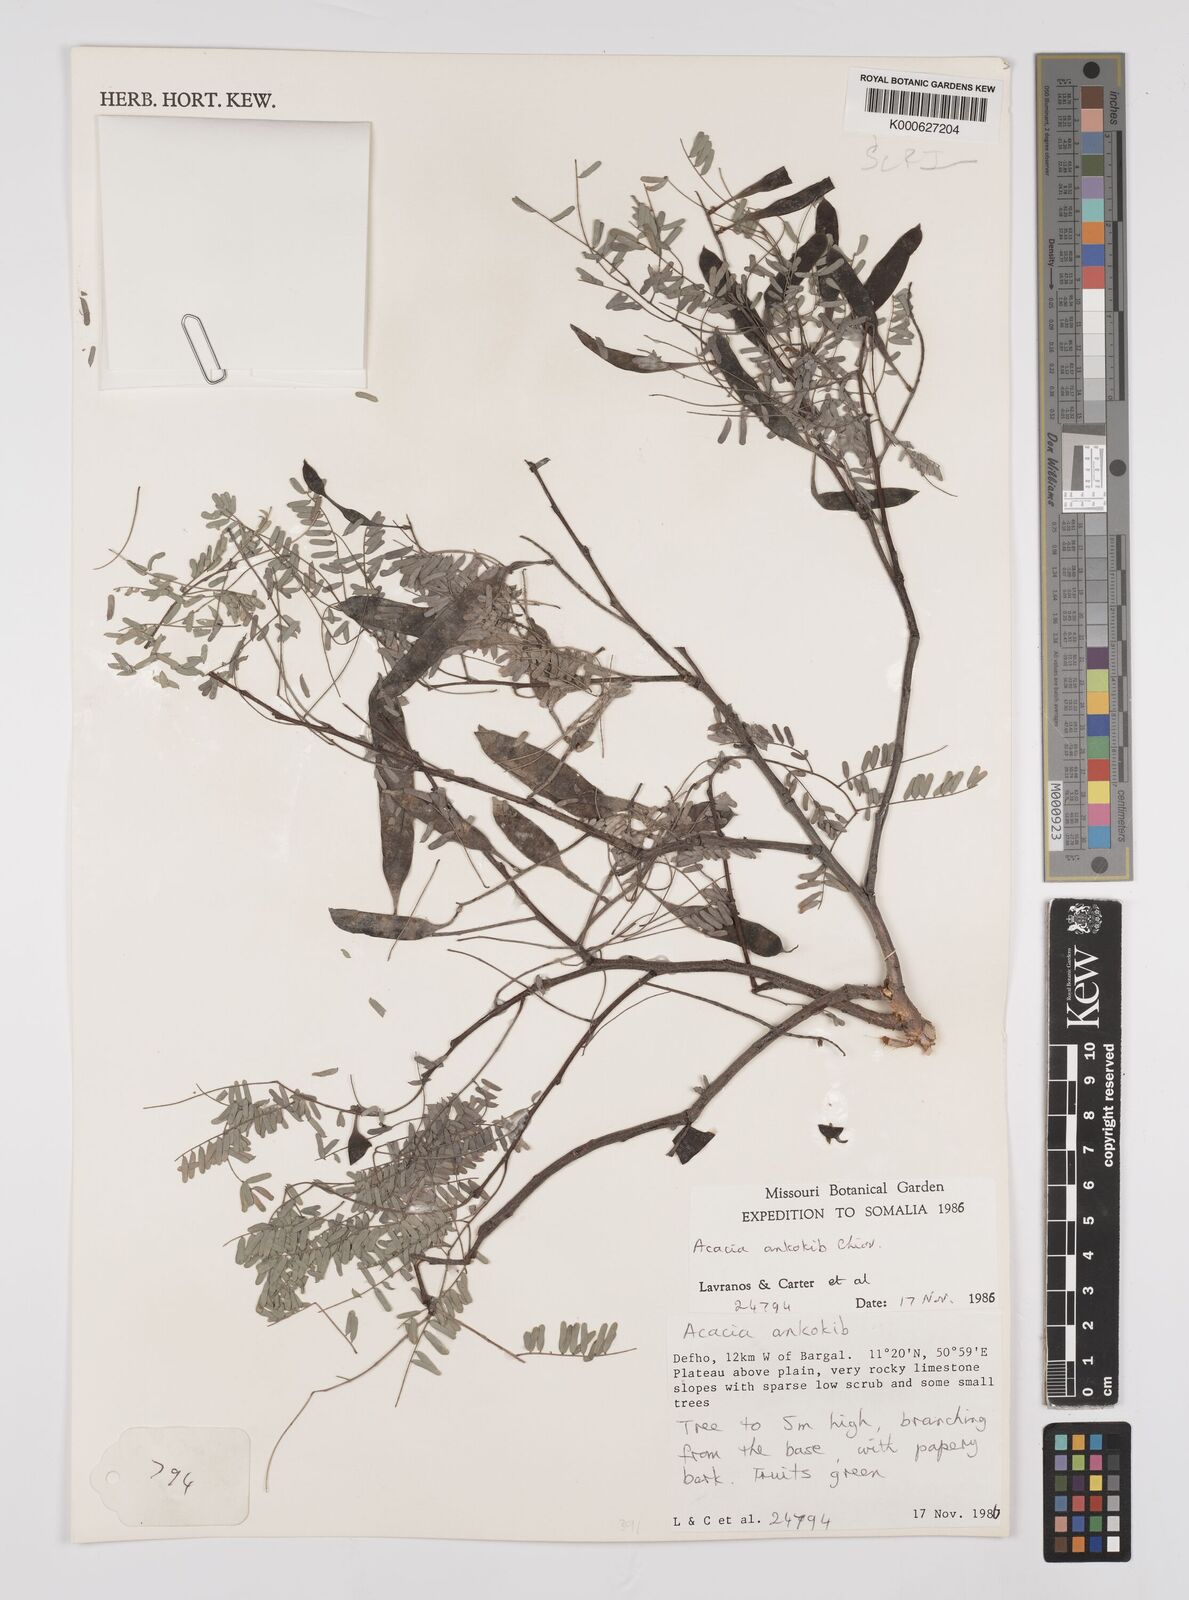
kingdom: Plantae
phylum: Tracheophyta
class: Magnoliopsida
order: Fabales
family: Fabaceae
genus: Senegalia
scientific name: Senegalia ankokib
